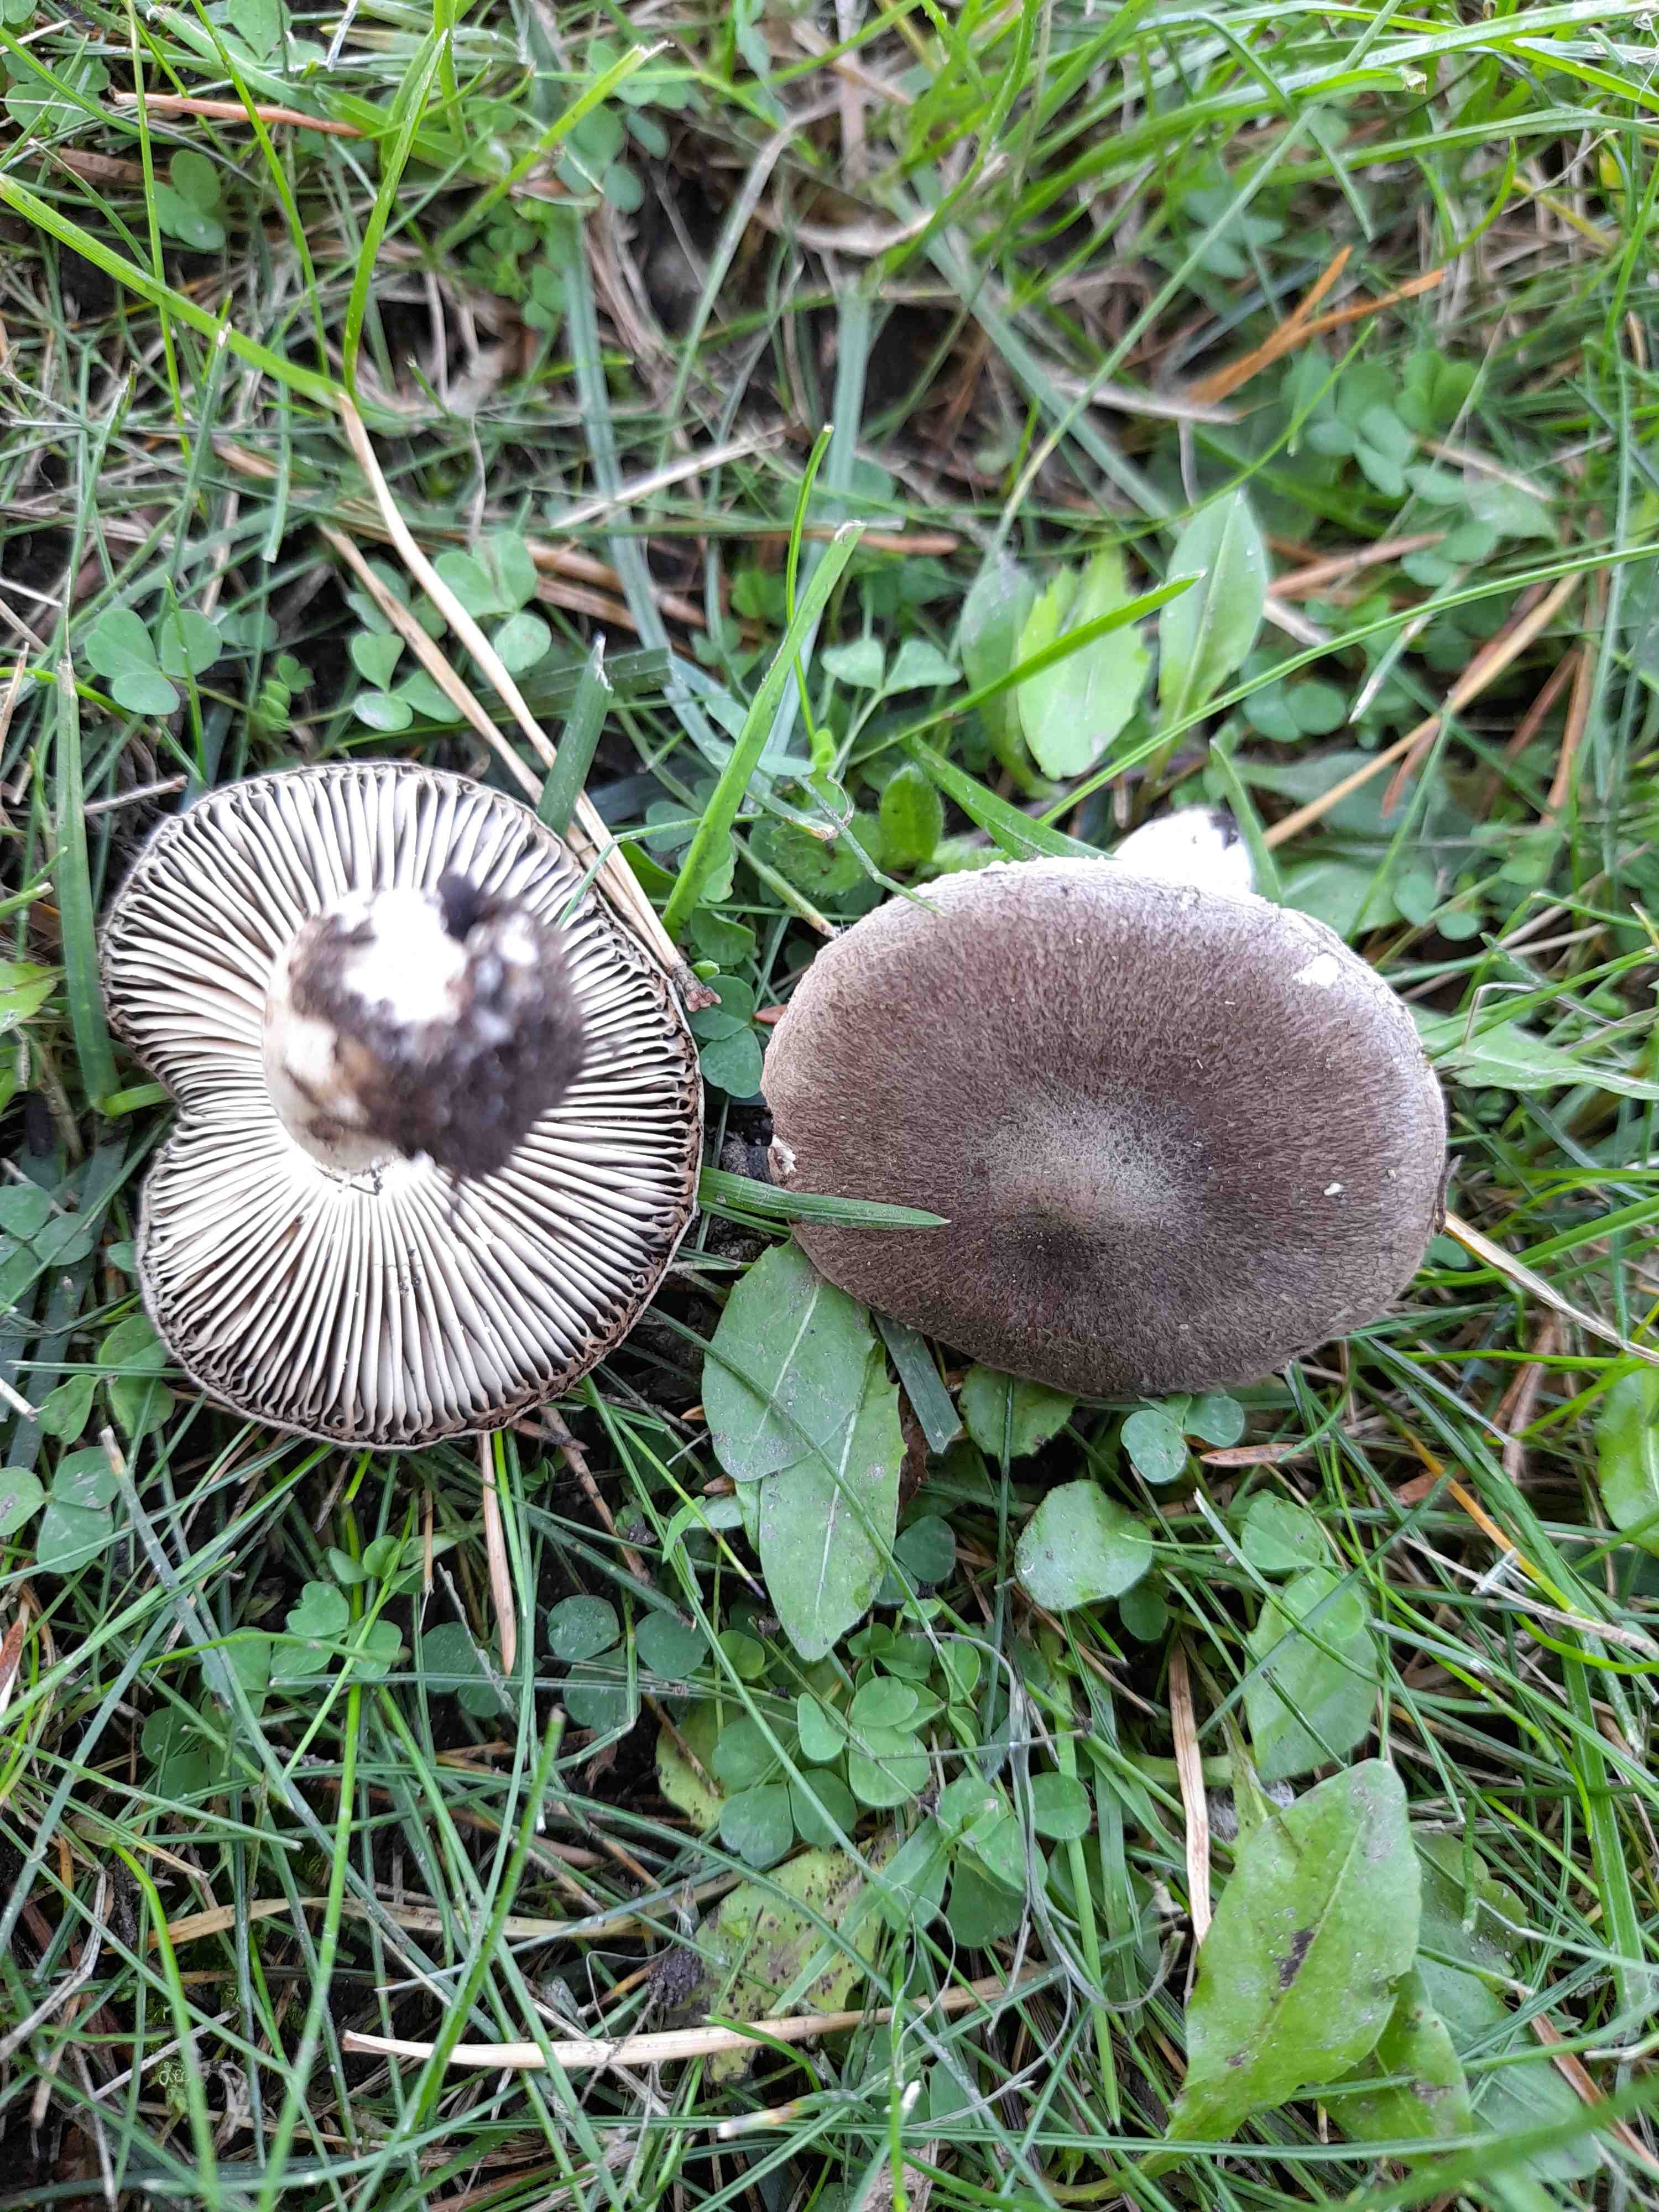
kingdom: Fungi
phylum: Basidiomycota
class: Agaricomycetes
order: Agaricales
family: Tricholomataceae
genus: Tricholoma
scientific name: Tricholoma terreum
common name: jordfarvet ridderhat
